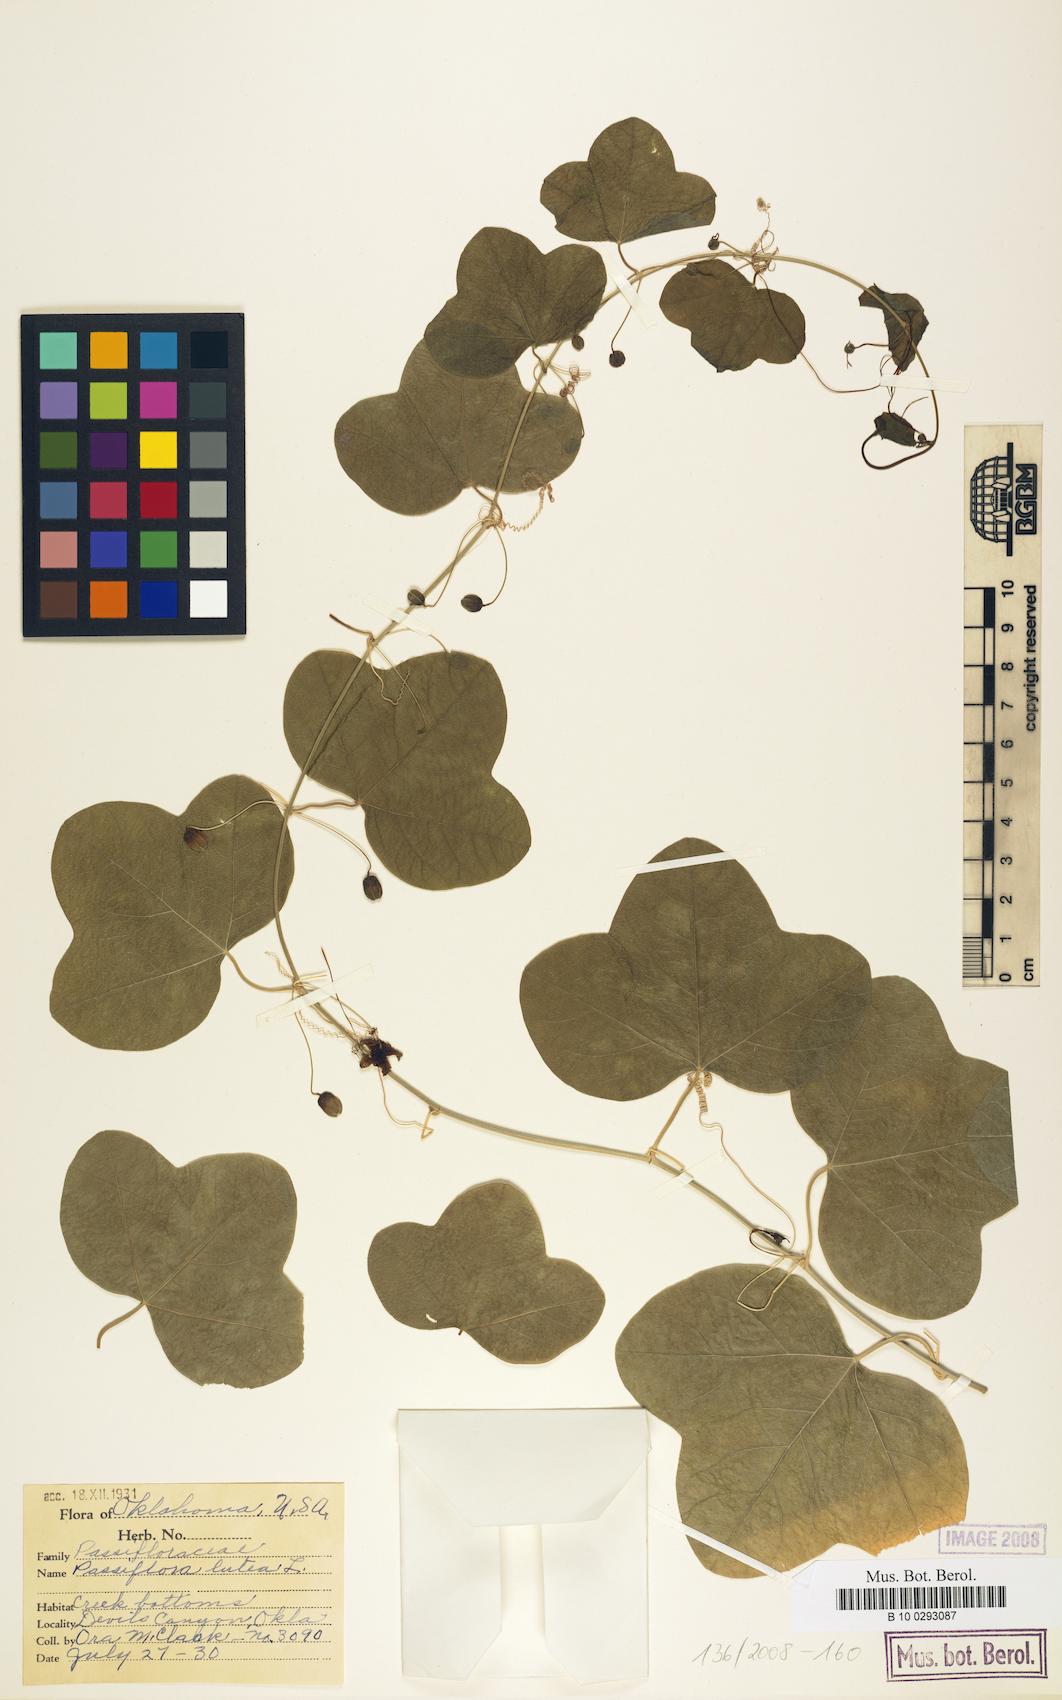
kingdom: Plantae
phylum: Tracheophyta
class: Magnoliopsida
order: Malpighiales
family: Passifloraceae
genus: Passiflora
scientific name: Passiflora lutea
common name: Yellow passionflower
